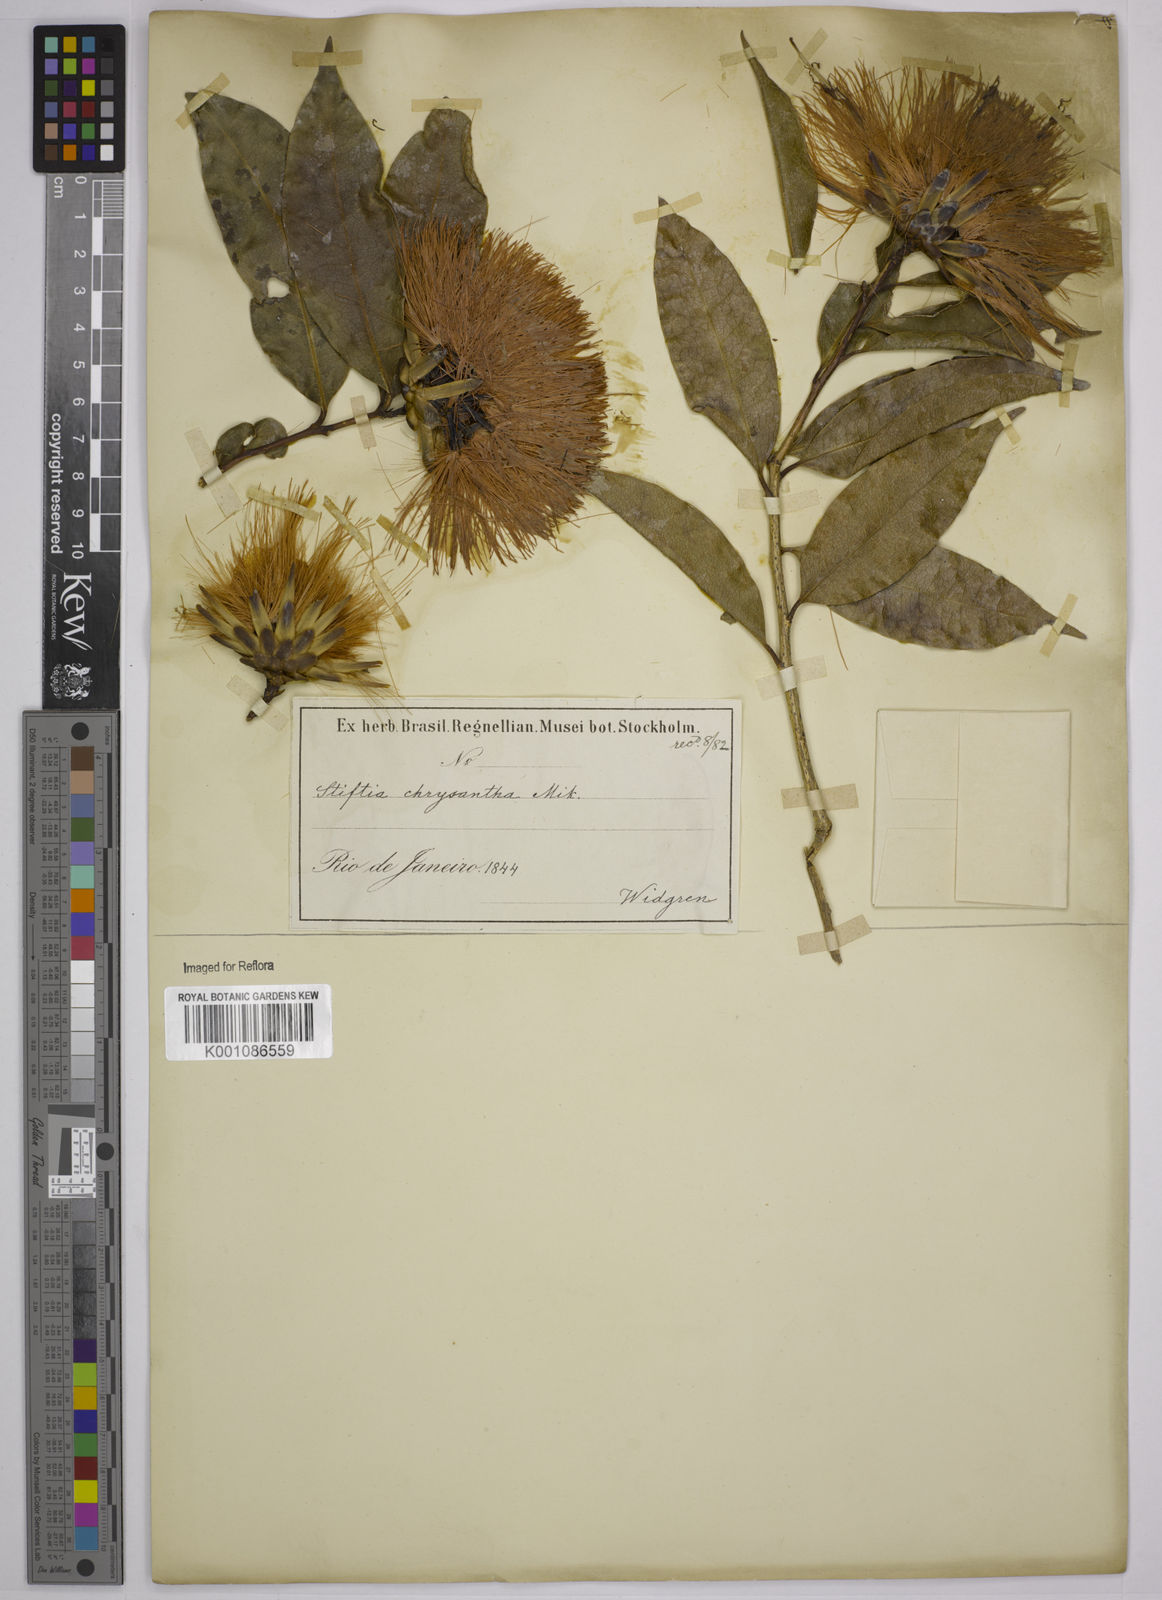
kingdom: Plantae
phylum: Tracheophyta
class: Magnoliopsida
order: Asterales
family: Asteraceae
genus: Stifftia
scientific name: Stifftia chrysantha
